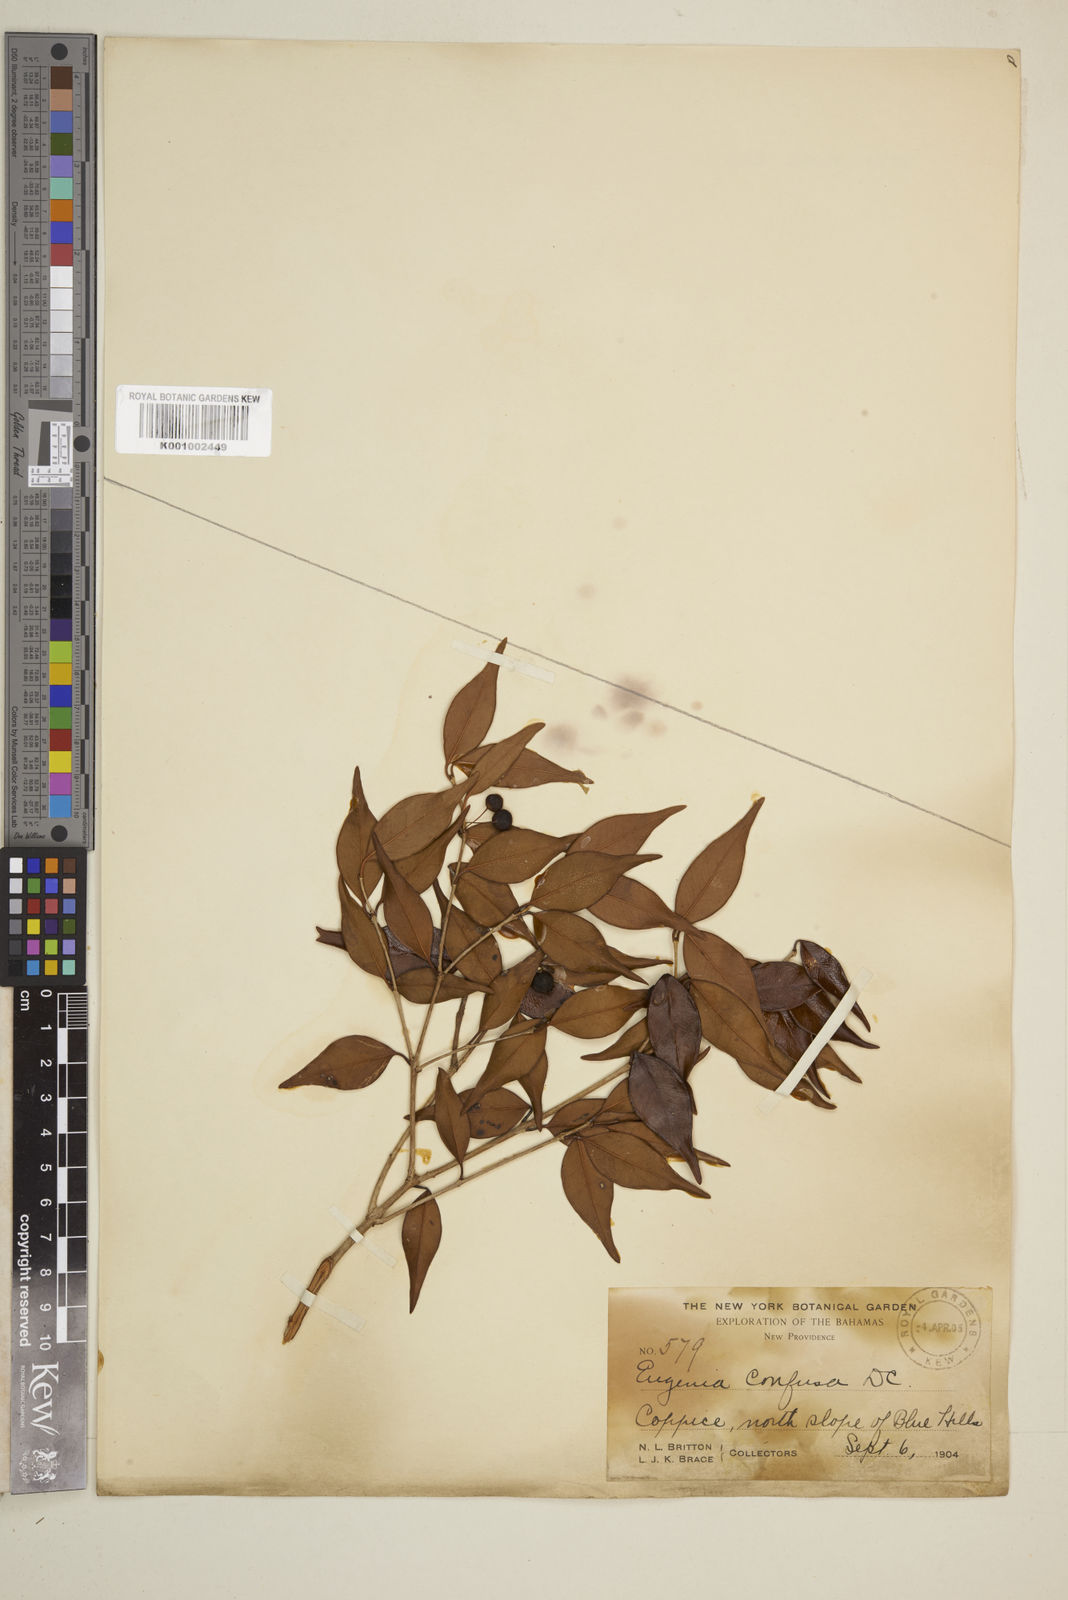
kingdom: Plantae
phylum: Tracheophyta
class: Magnoliopsida
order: Myrtales
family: Myrtaceae
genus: Eugenia
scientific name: Eugenia confusa
